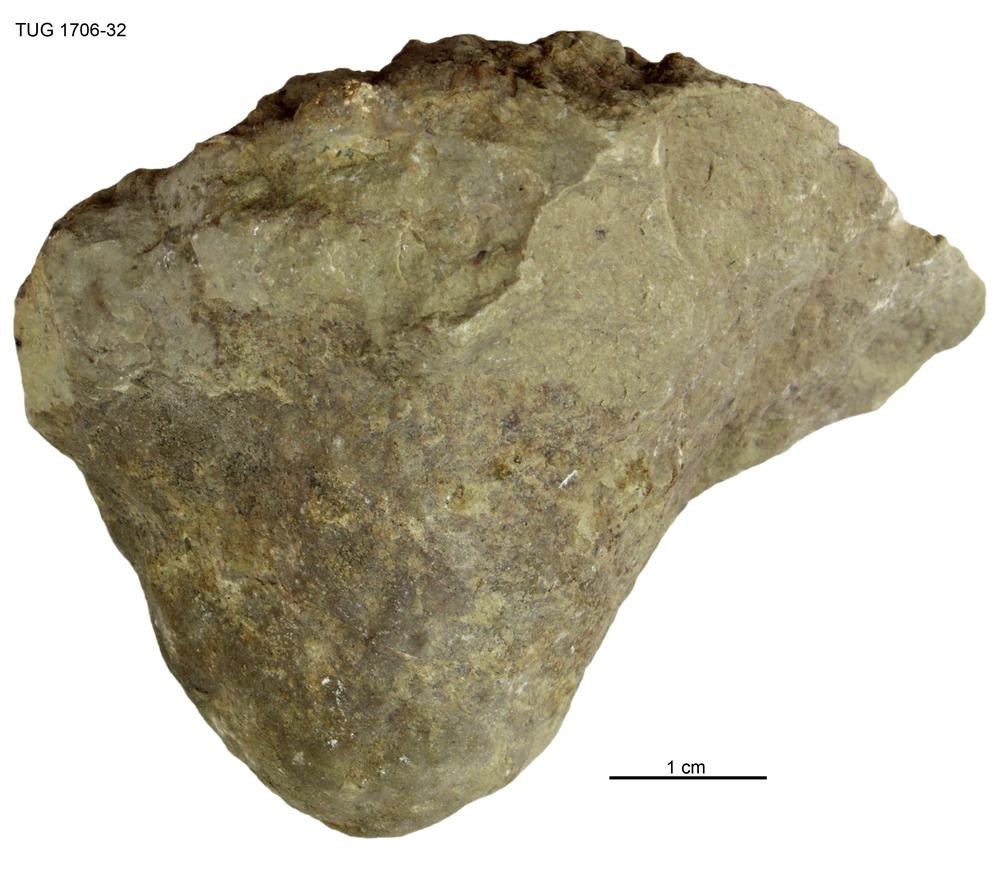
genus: Conichnus
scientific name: Conichnus
